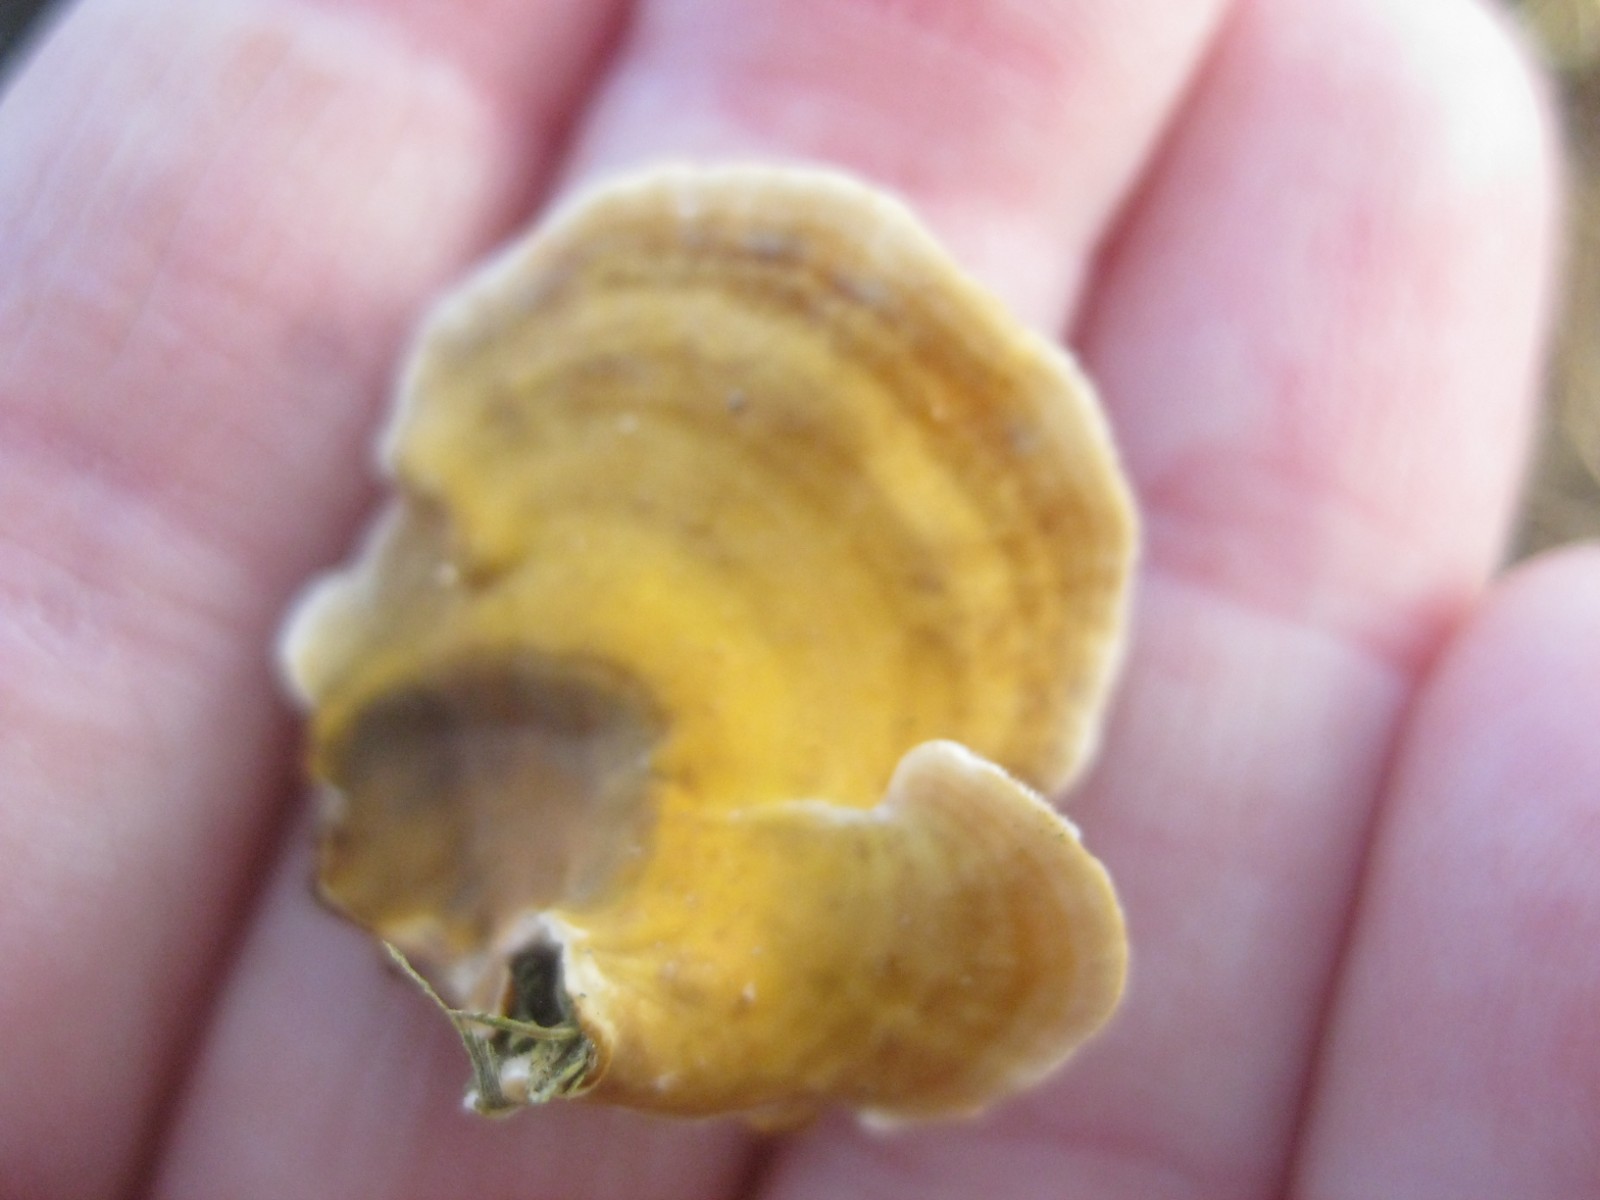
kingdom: Fungi
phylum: Basidiomycota
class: Agaricomycetes
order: Russulales
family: Stereaceae
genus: Stereum
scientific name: Stereum hirsutum
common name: håret lædersvamp
